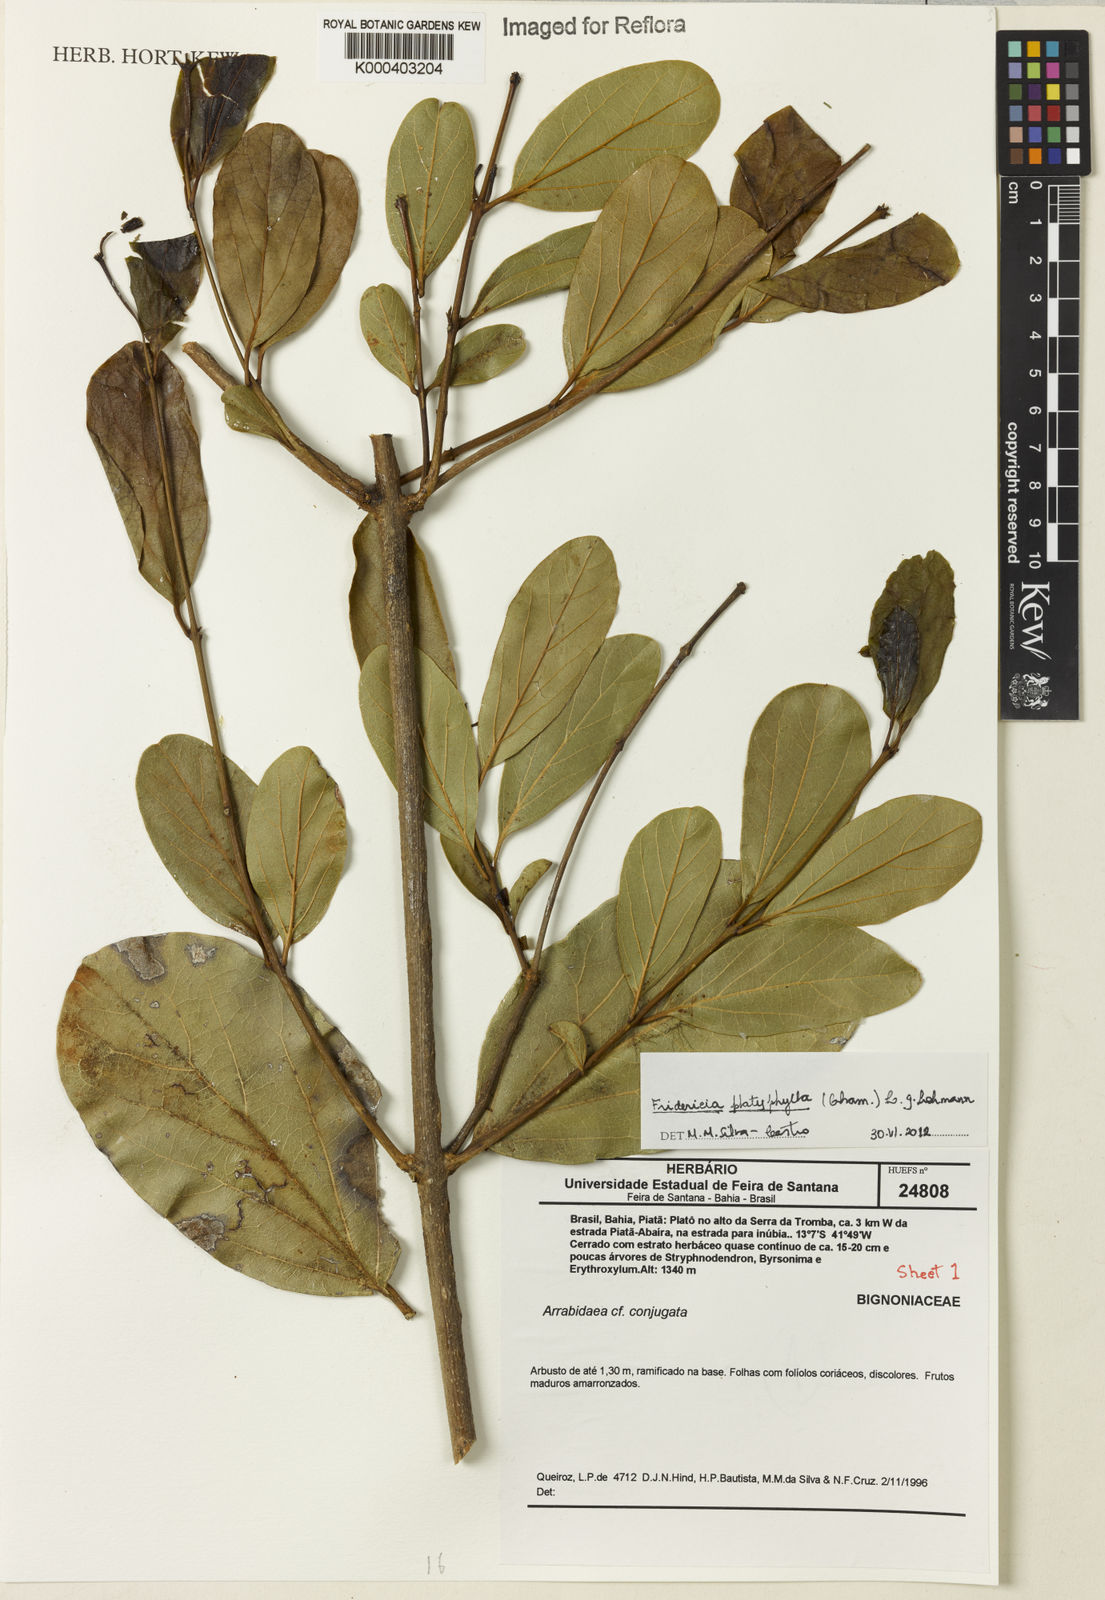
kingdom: Plantae
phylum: Tracheophyta
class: Magnoliopsida
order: Lamiales
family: Bignoniaceae
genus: Fridericia
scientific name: Fridericia platyphylla
